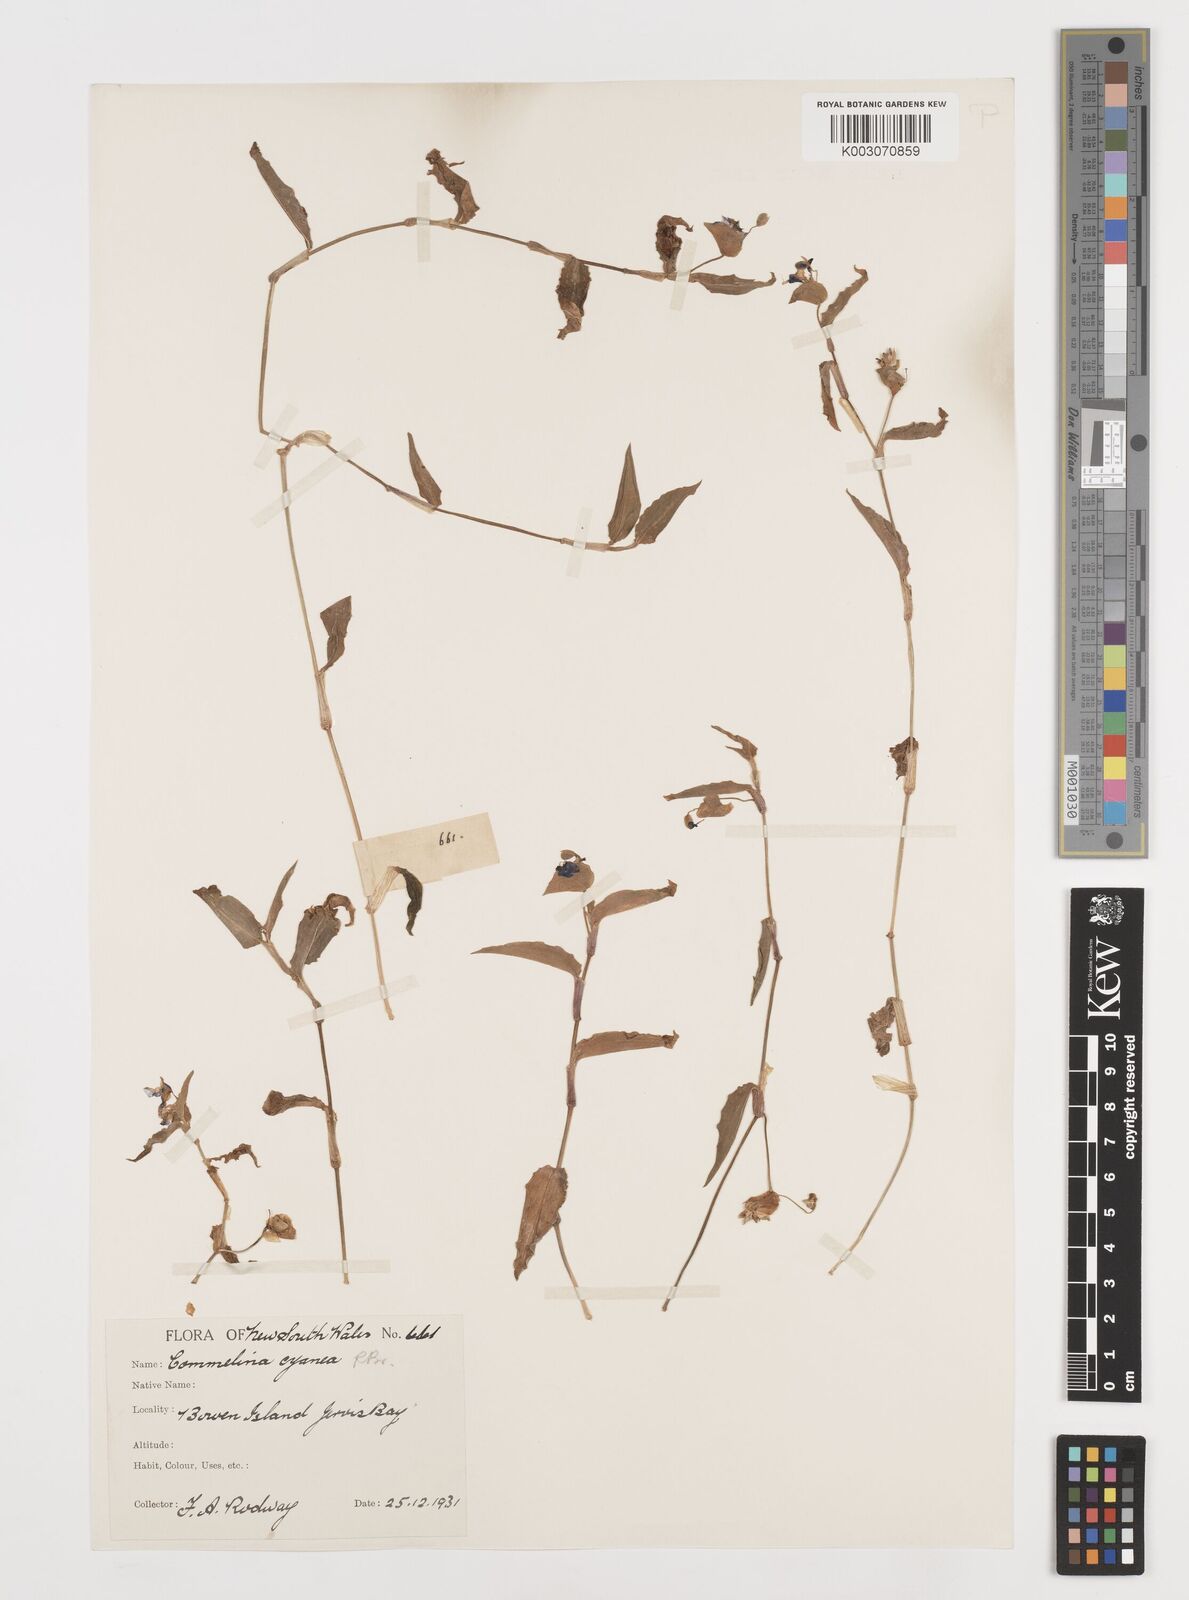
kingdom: Plantae
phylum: Tracheophyta
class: Liliopsida
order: Commelinales
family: Commelinaceae
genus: Commelina
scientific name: Commelina cyanea
